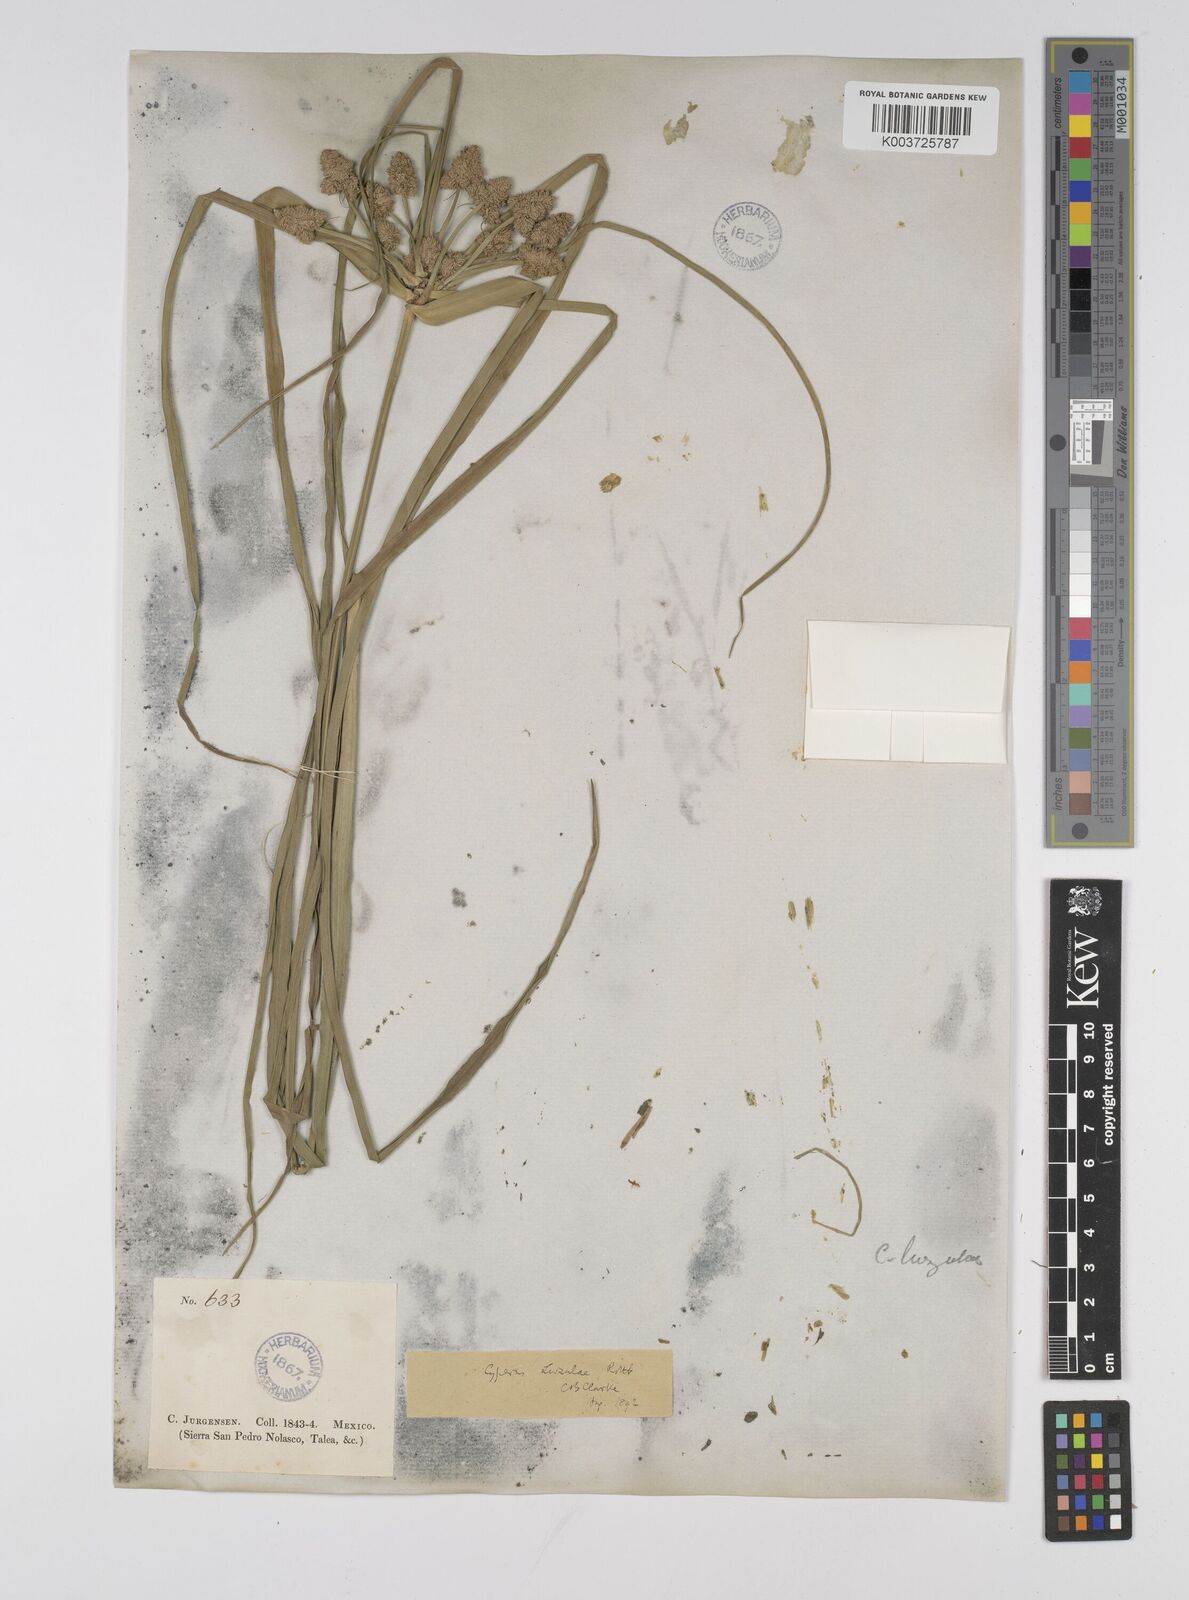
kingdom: Plantae
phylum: Tracheophyta
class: Liliopsida
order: Poales
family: Cyperaceae
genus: Cyperus
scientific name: Cyperus luzulae
